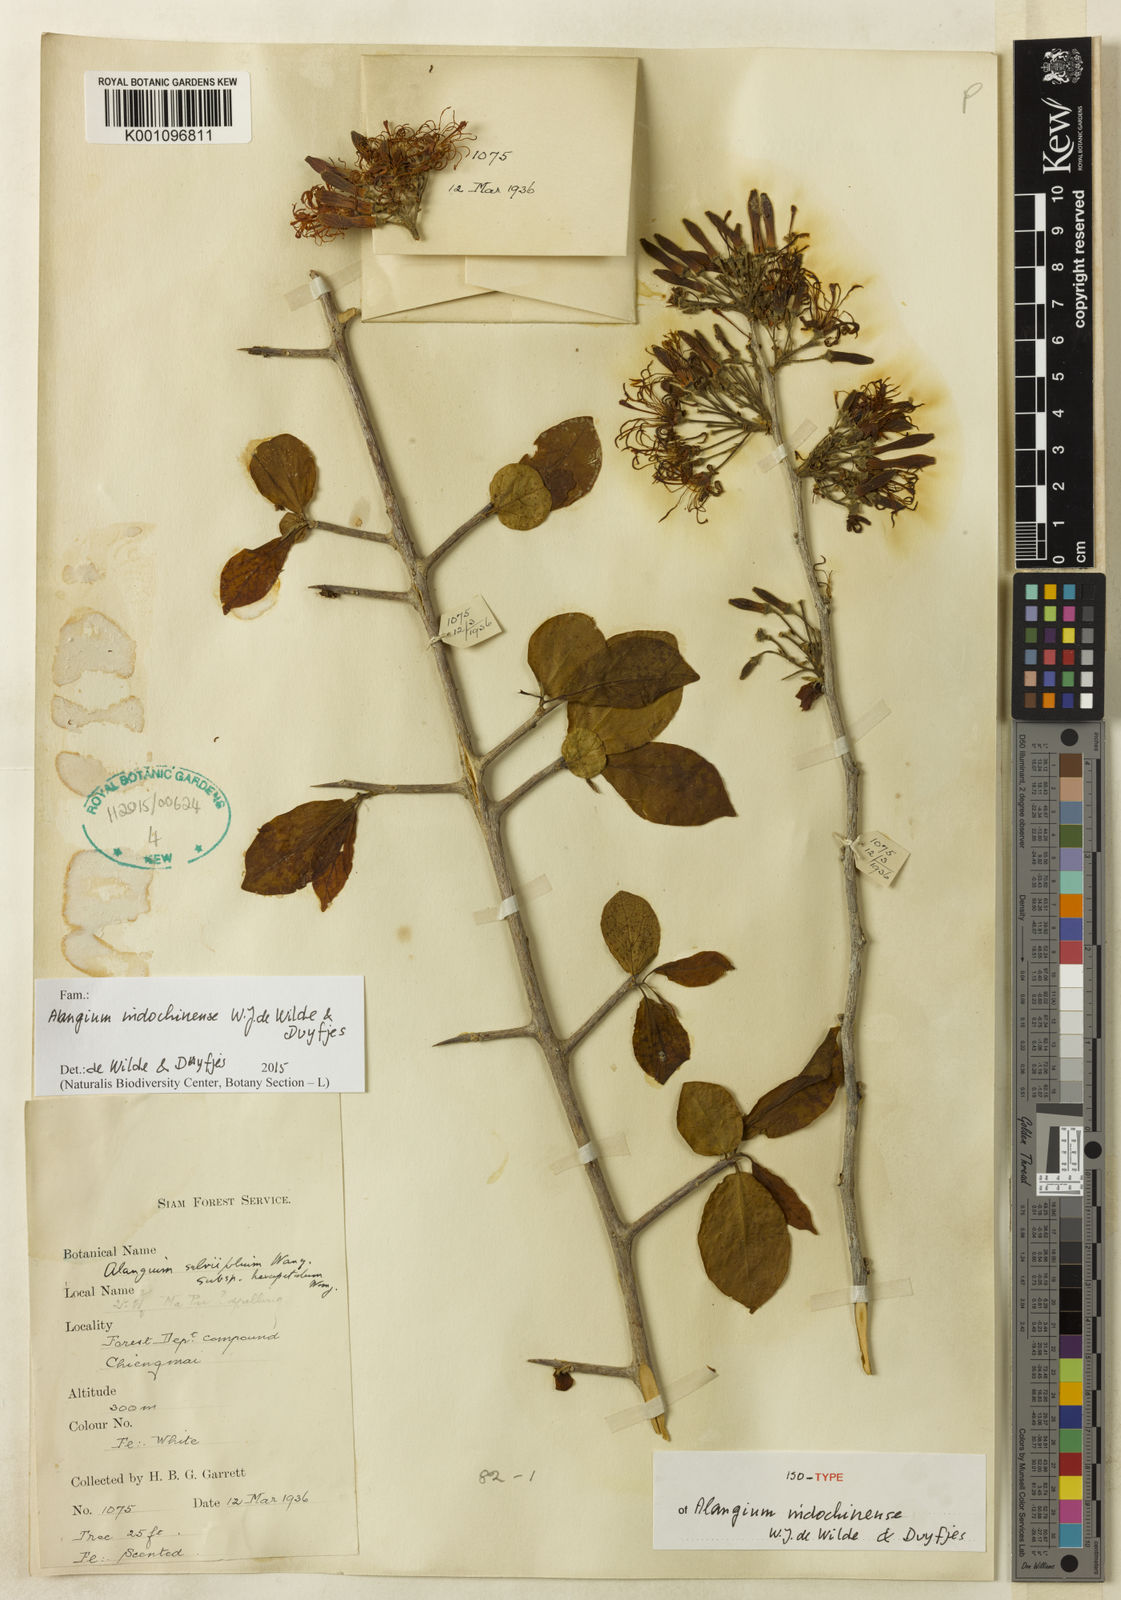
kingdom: Plantae
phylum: Tracheophyta
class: Magnoliopsida
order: Cornales
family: Cornaceae
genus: Alangium
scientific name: Alangium indochinense
